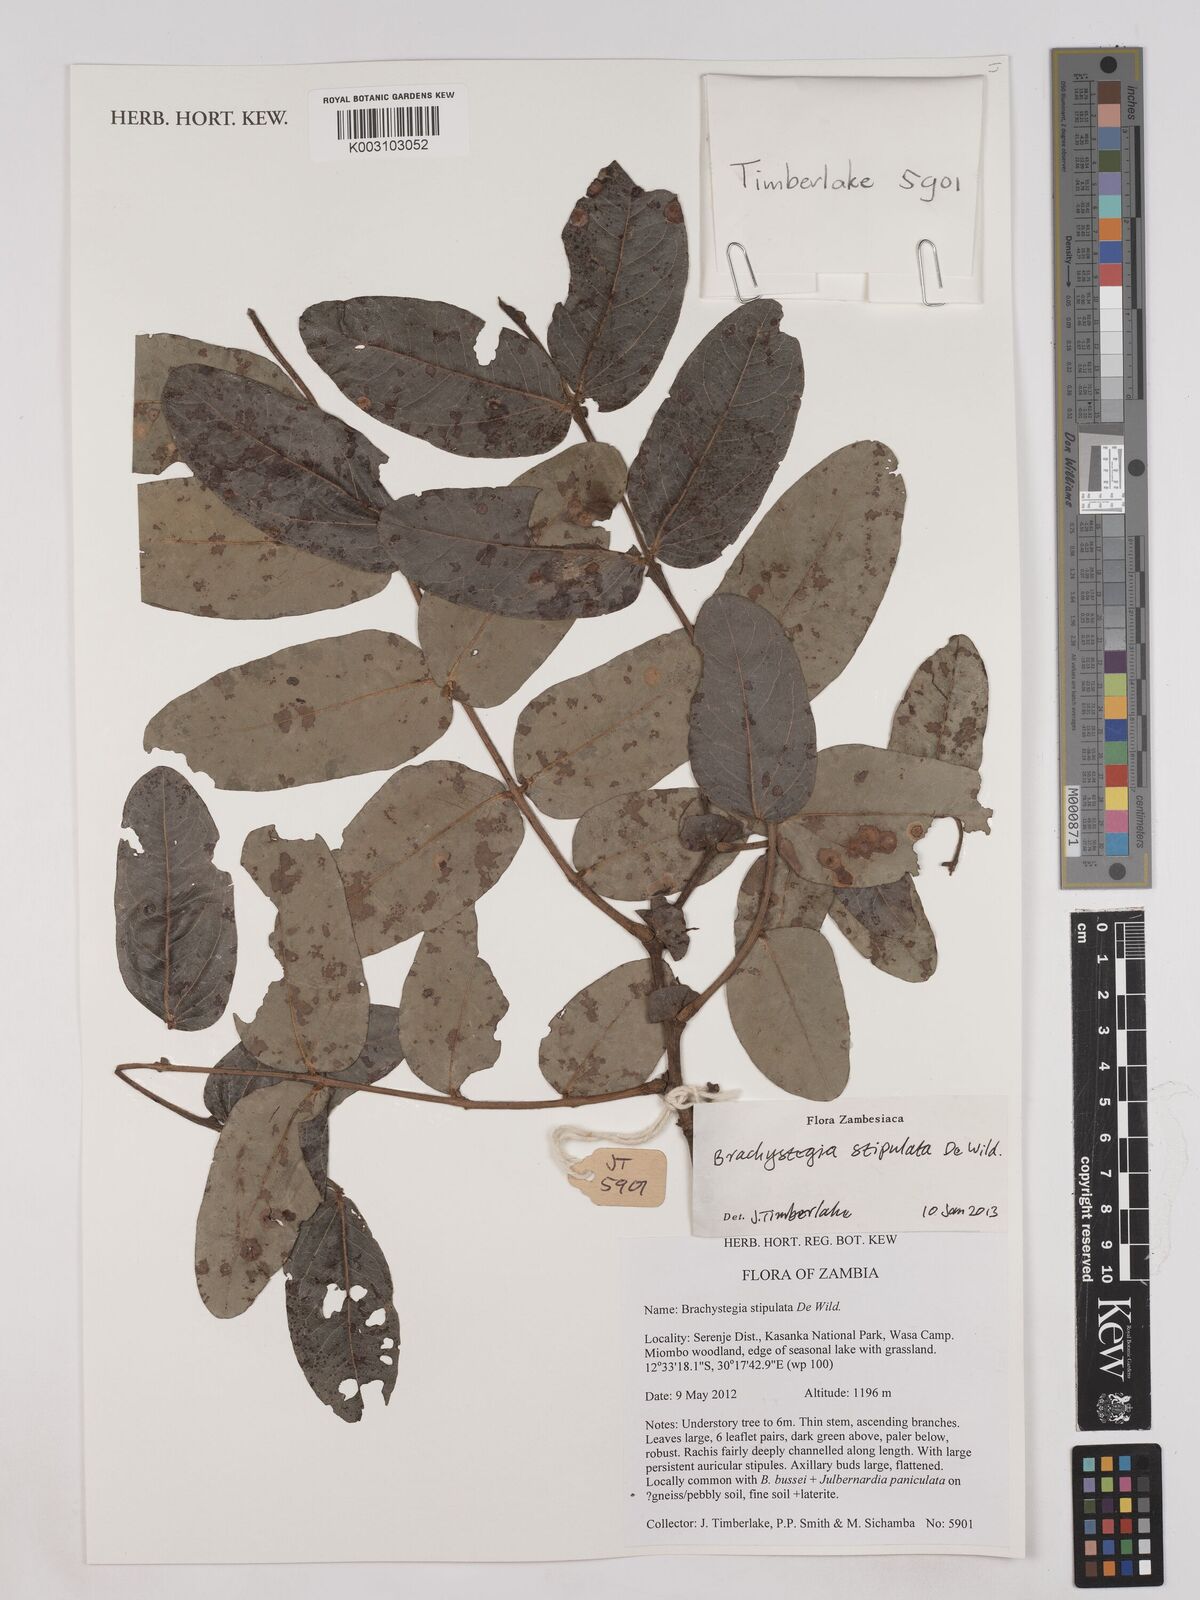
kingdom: Plantae
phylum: Tracheophyta
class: Magnoliopsida
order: Fabales
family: Fabaceae
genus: Brachystegia
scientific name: Brachystegia stipulata
